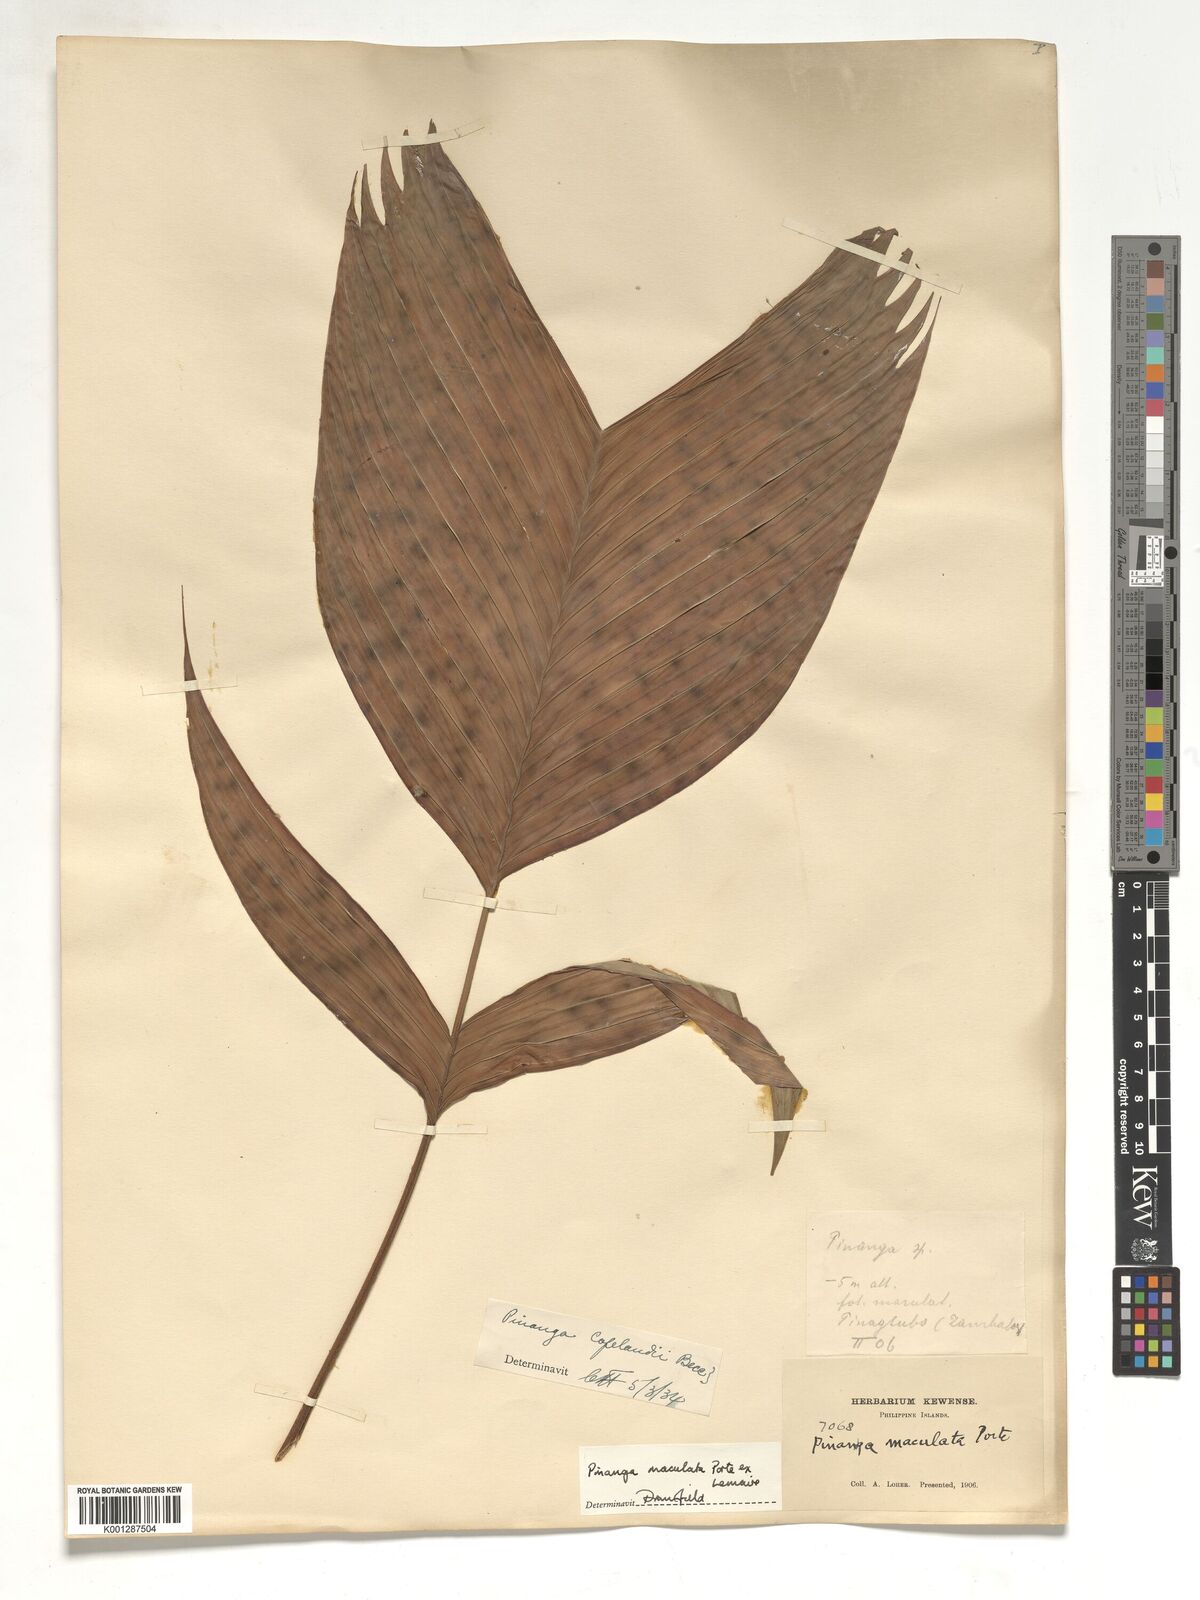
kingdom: Plantae
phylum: Tracheophyta
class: Liliopsida
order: Arecales
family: Arecaceae
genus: Pinanga
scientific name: Pinanga maculata
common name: Tiger palm
